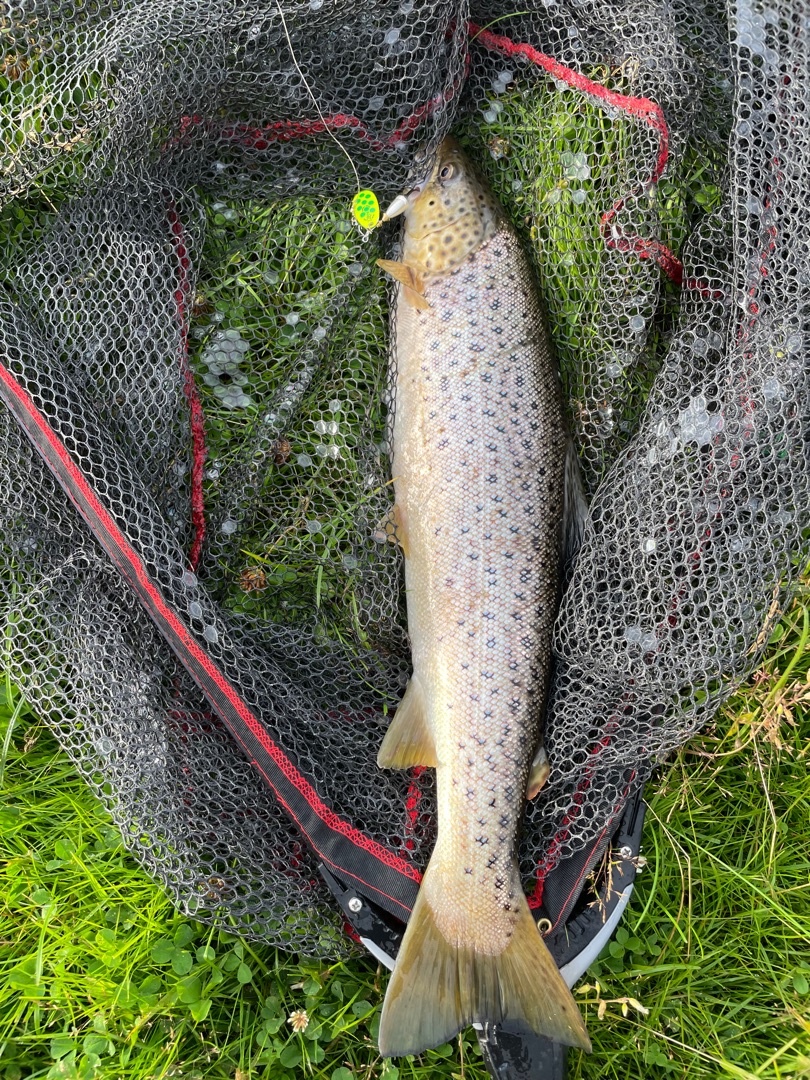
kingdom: Animalia
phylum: Chordata
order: Salmoniformes
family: Salmonidae
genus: Salmo
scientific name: Salmo trutta
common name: Ørred
